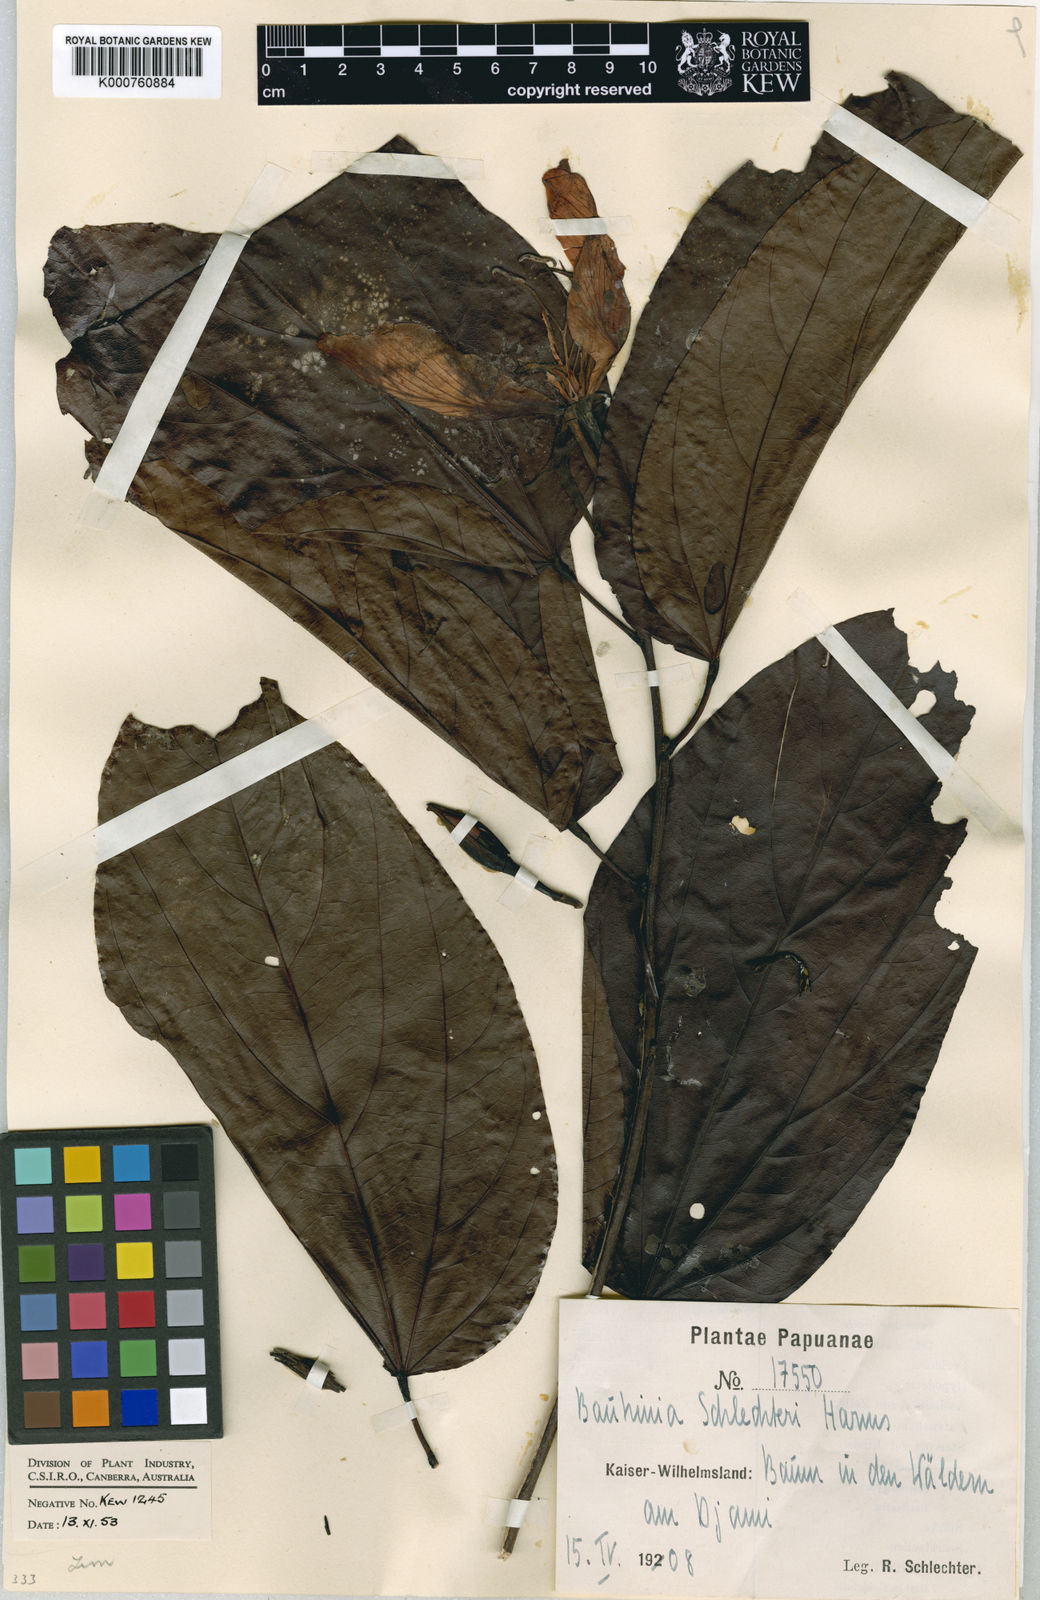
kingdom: Plantae
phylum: Tracheophyta
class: Magnoliopsida
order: Fabales
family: Fabaceae
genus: Gigasiphon
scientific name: Gigasiphon schlechteri
